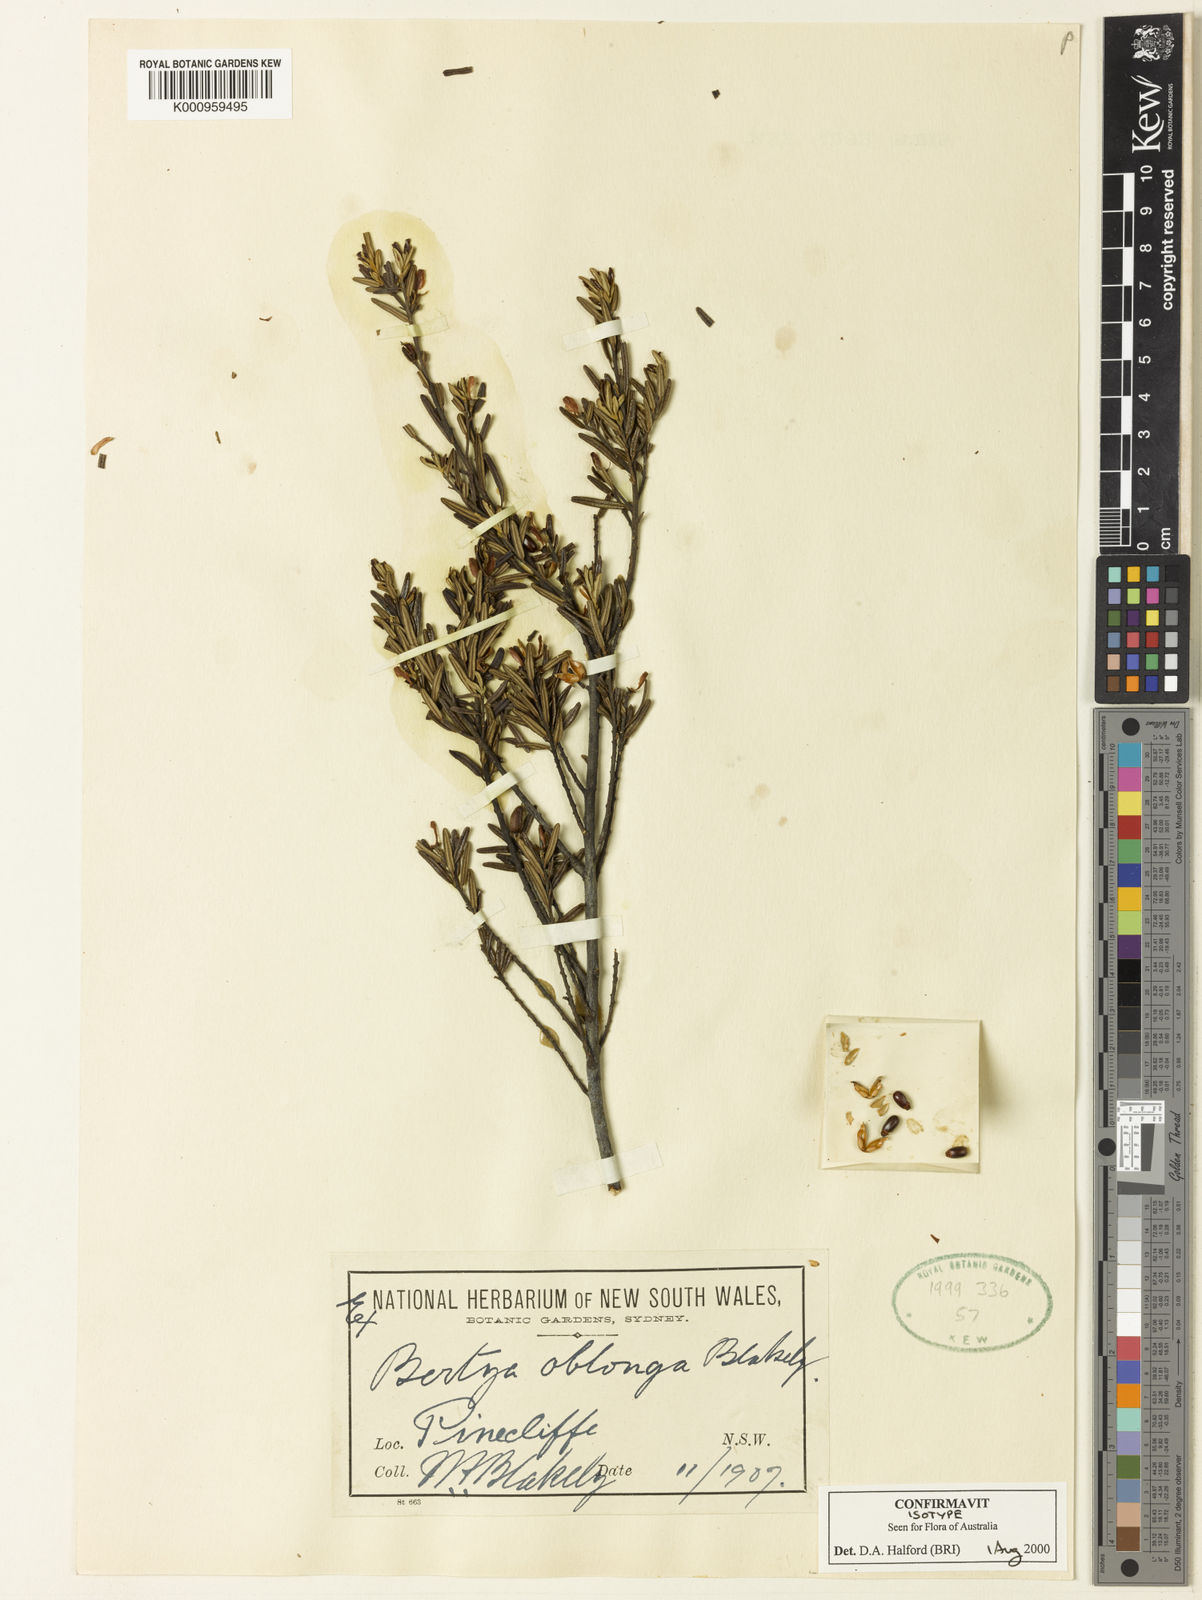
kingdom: Plantae
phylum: Tracheophyta
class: Magnoliopsida
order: Malpighiales
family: Euphorbiaceae
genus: Bertya
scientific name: Bertya oblonga
